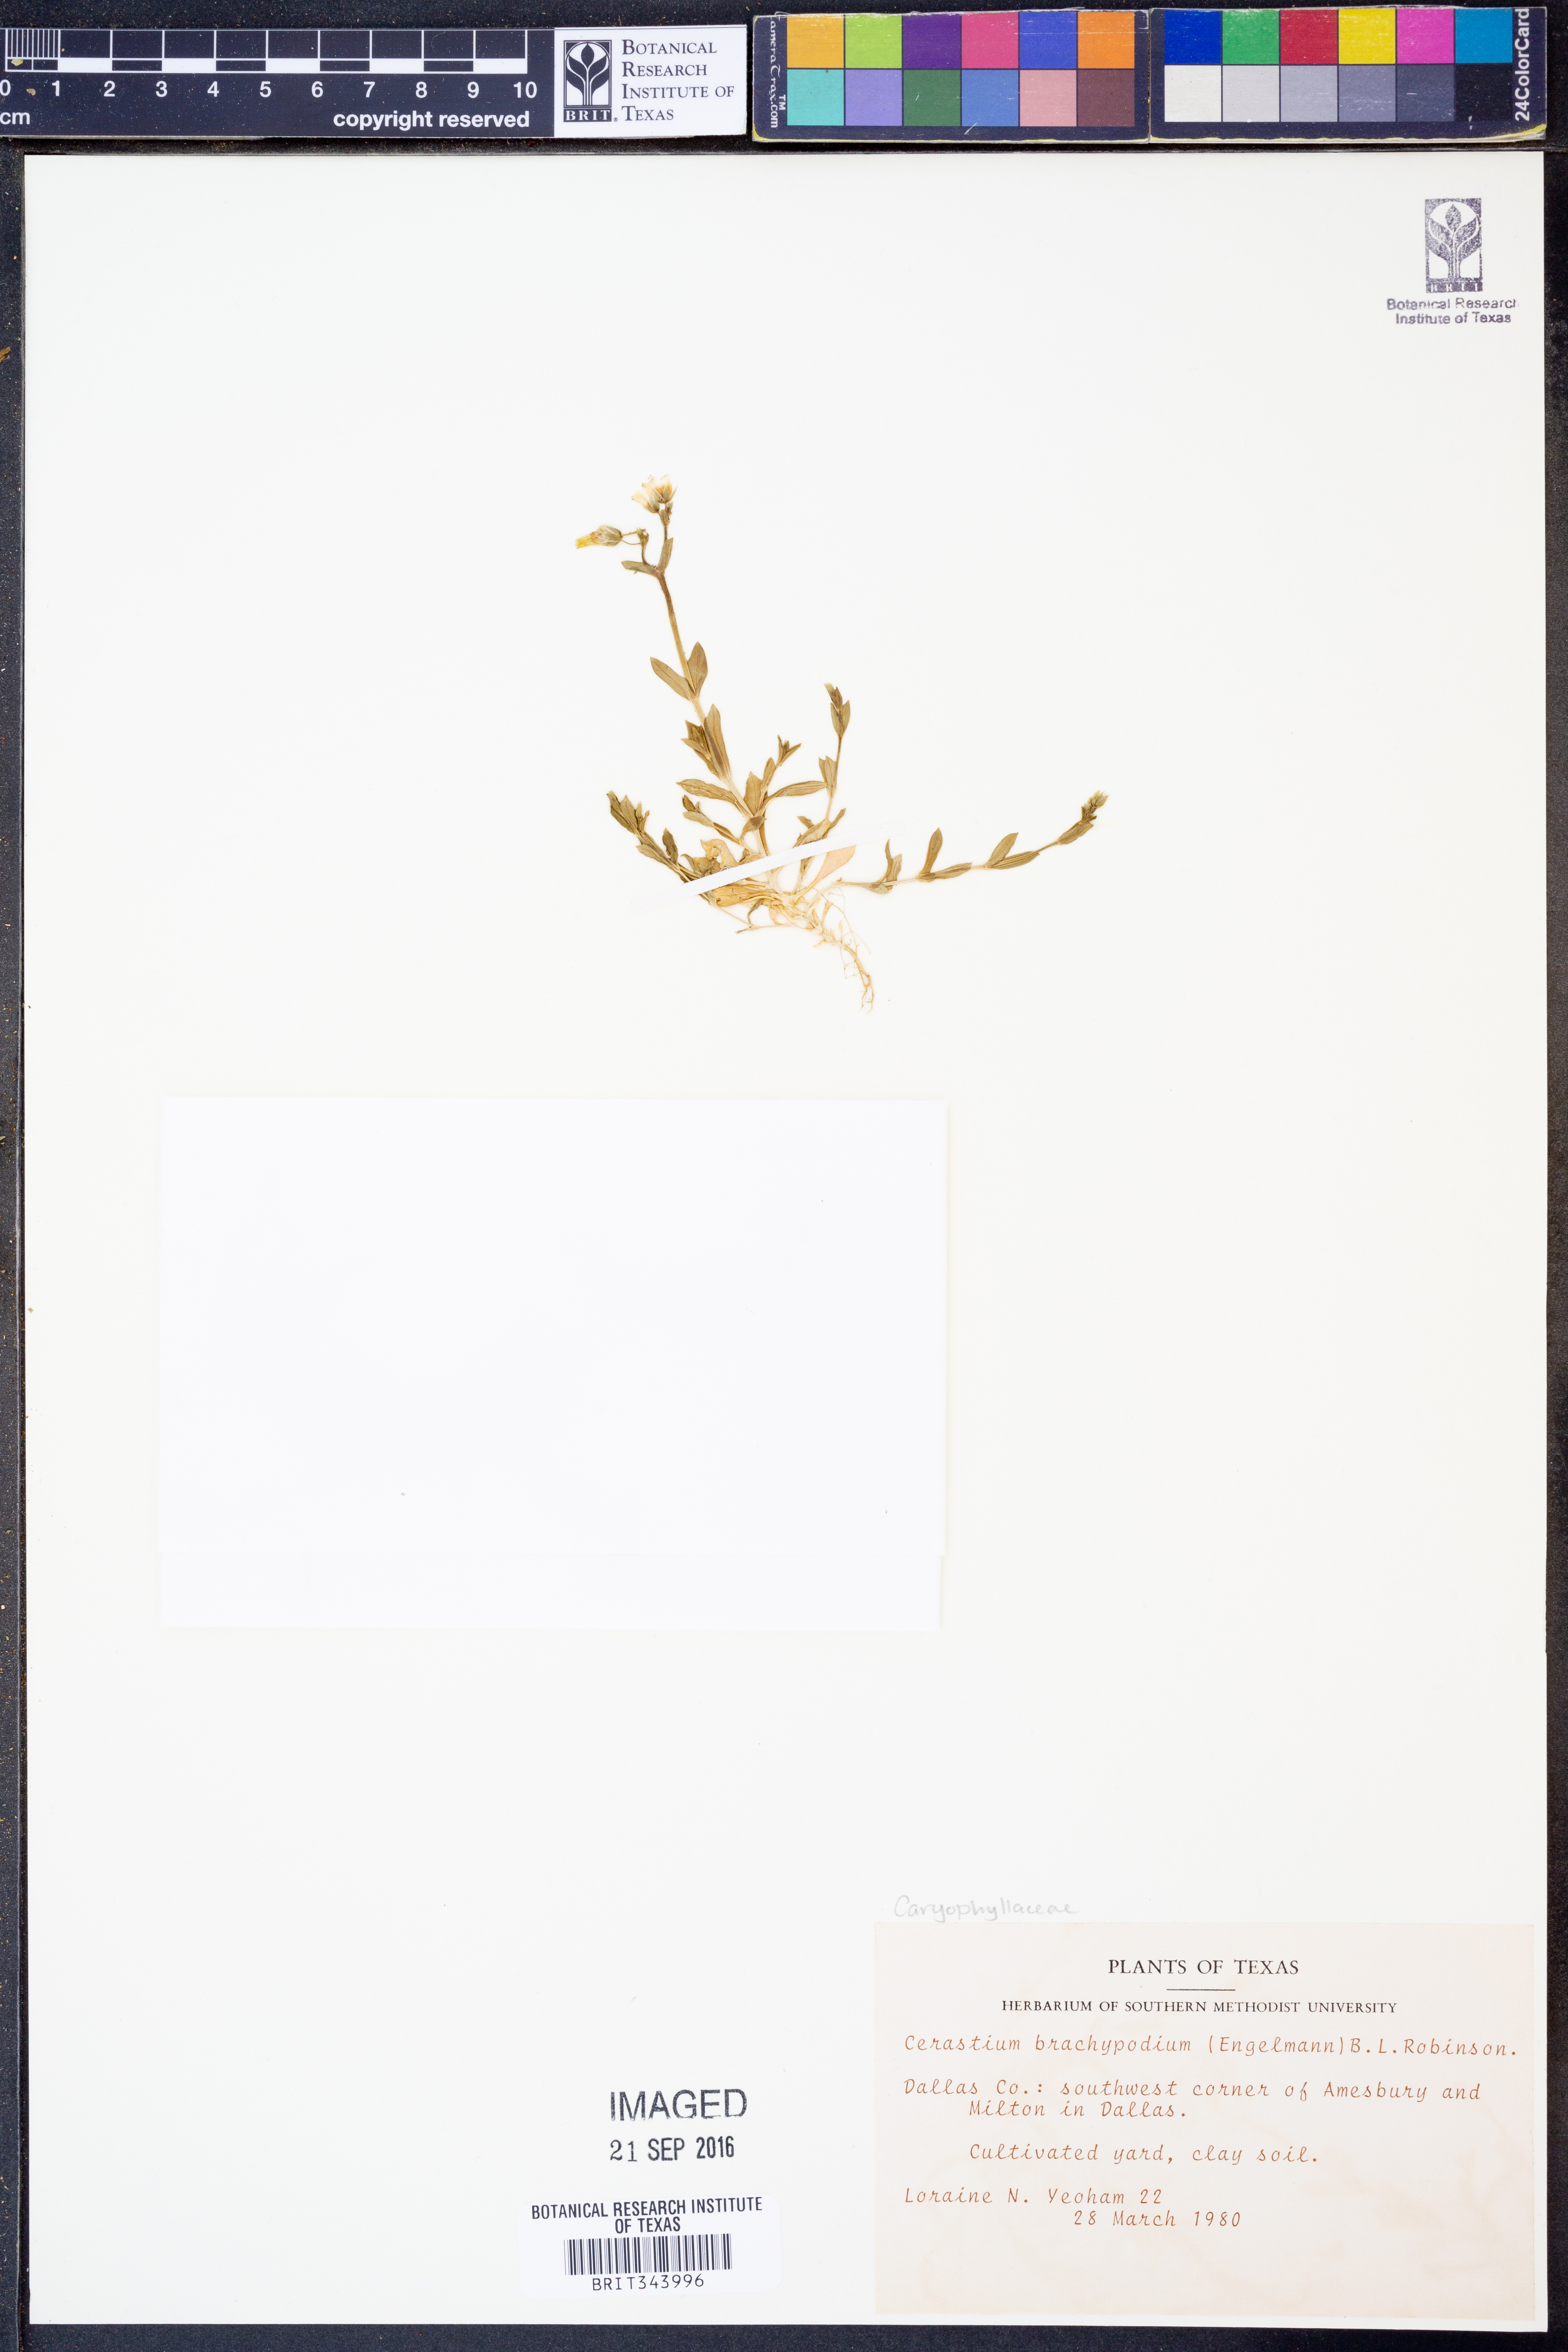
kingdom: Plantae
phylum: Tracheophyta
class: Magnoliopsida
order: Caryophyllales
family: Caryophyllaceae
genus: Cerastium
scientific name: Cerastium brachypodum
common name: Short-pedicelled nodding chickweed
